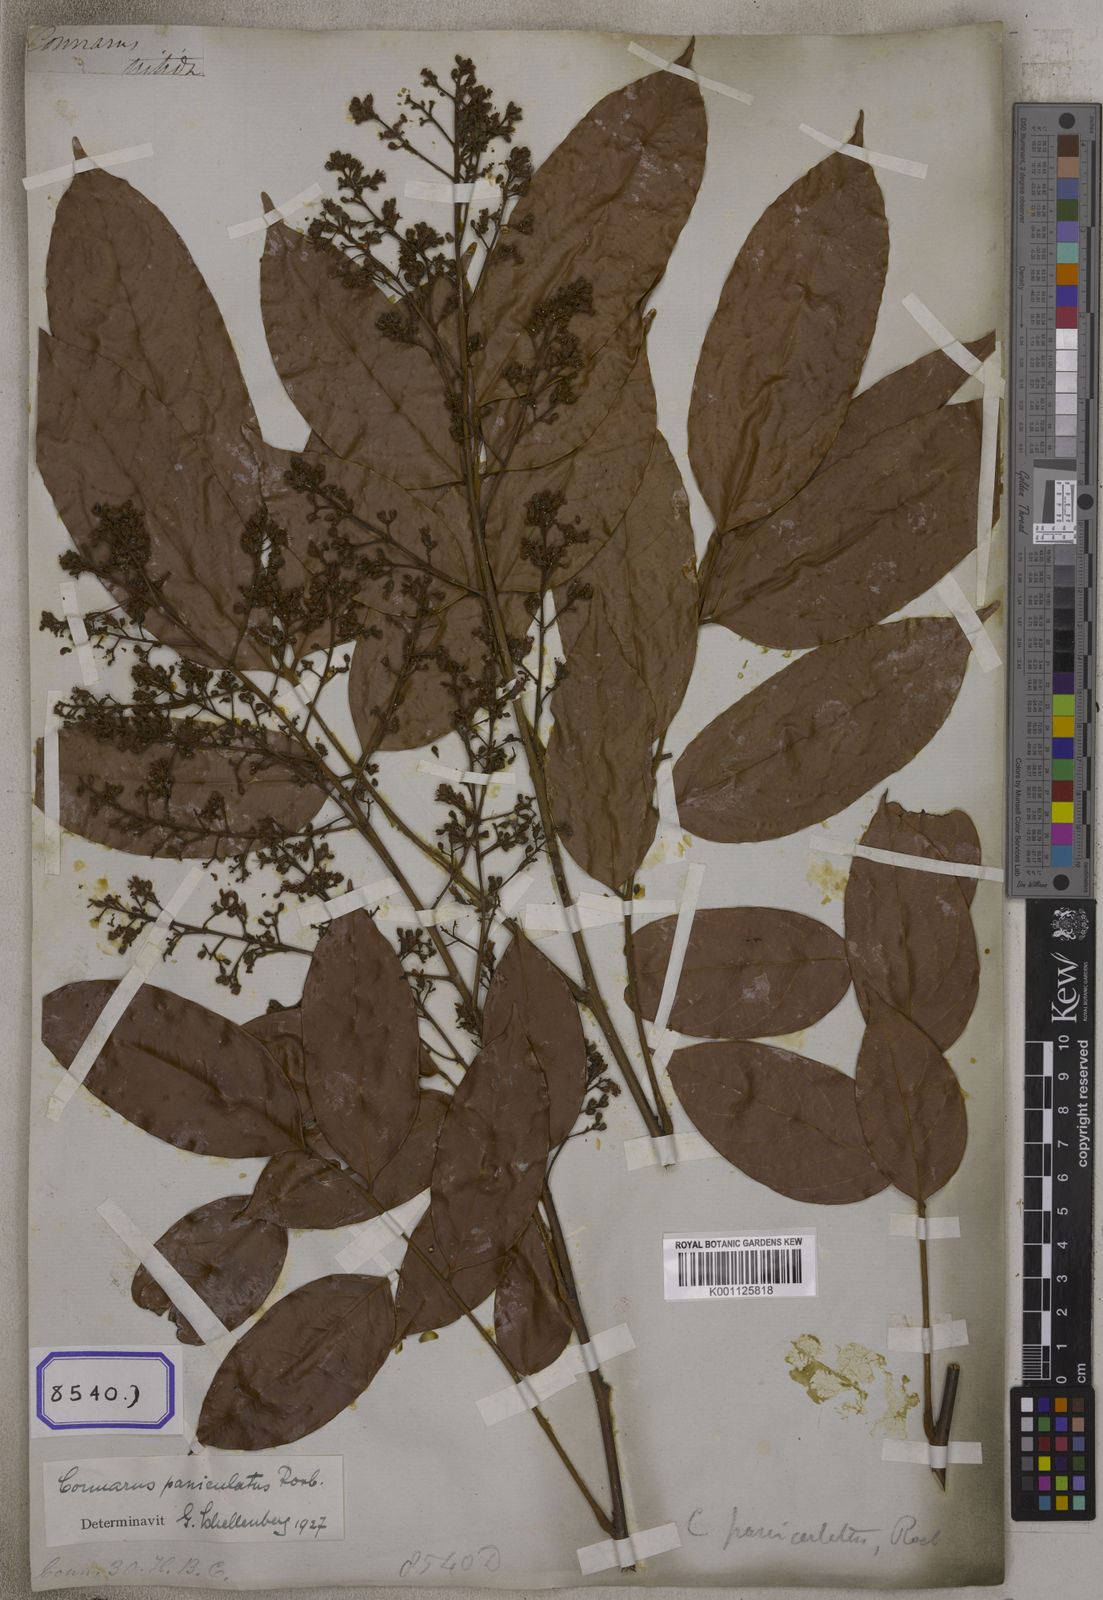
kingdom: Plantae
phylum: Tracheophyta
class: Magnoliopsida
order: Oxalidales
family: Connaraceae
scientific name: Connaraceae
